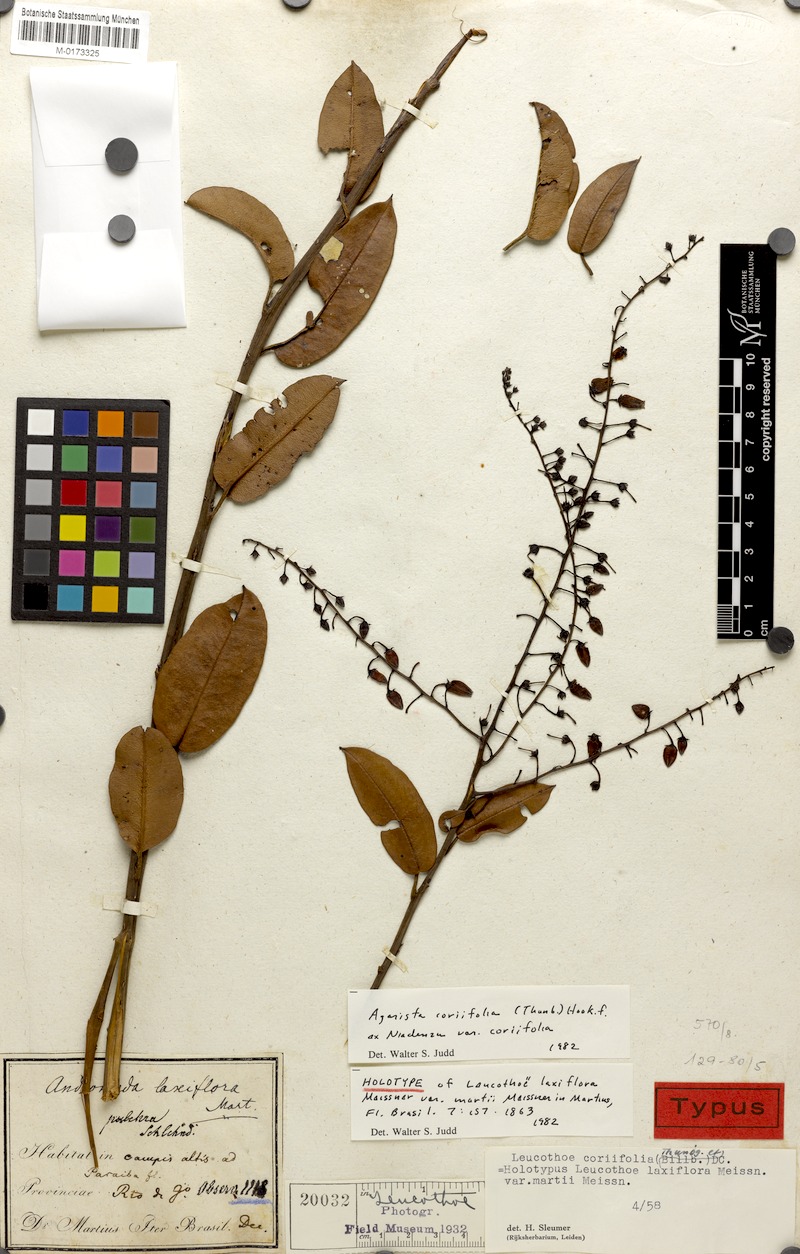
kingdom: Plantae
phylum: Tracheophyta
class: Magnoliopsida
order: Ericales
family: Ericaceae
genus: Agarista
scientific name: Agarista coriifolia
